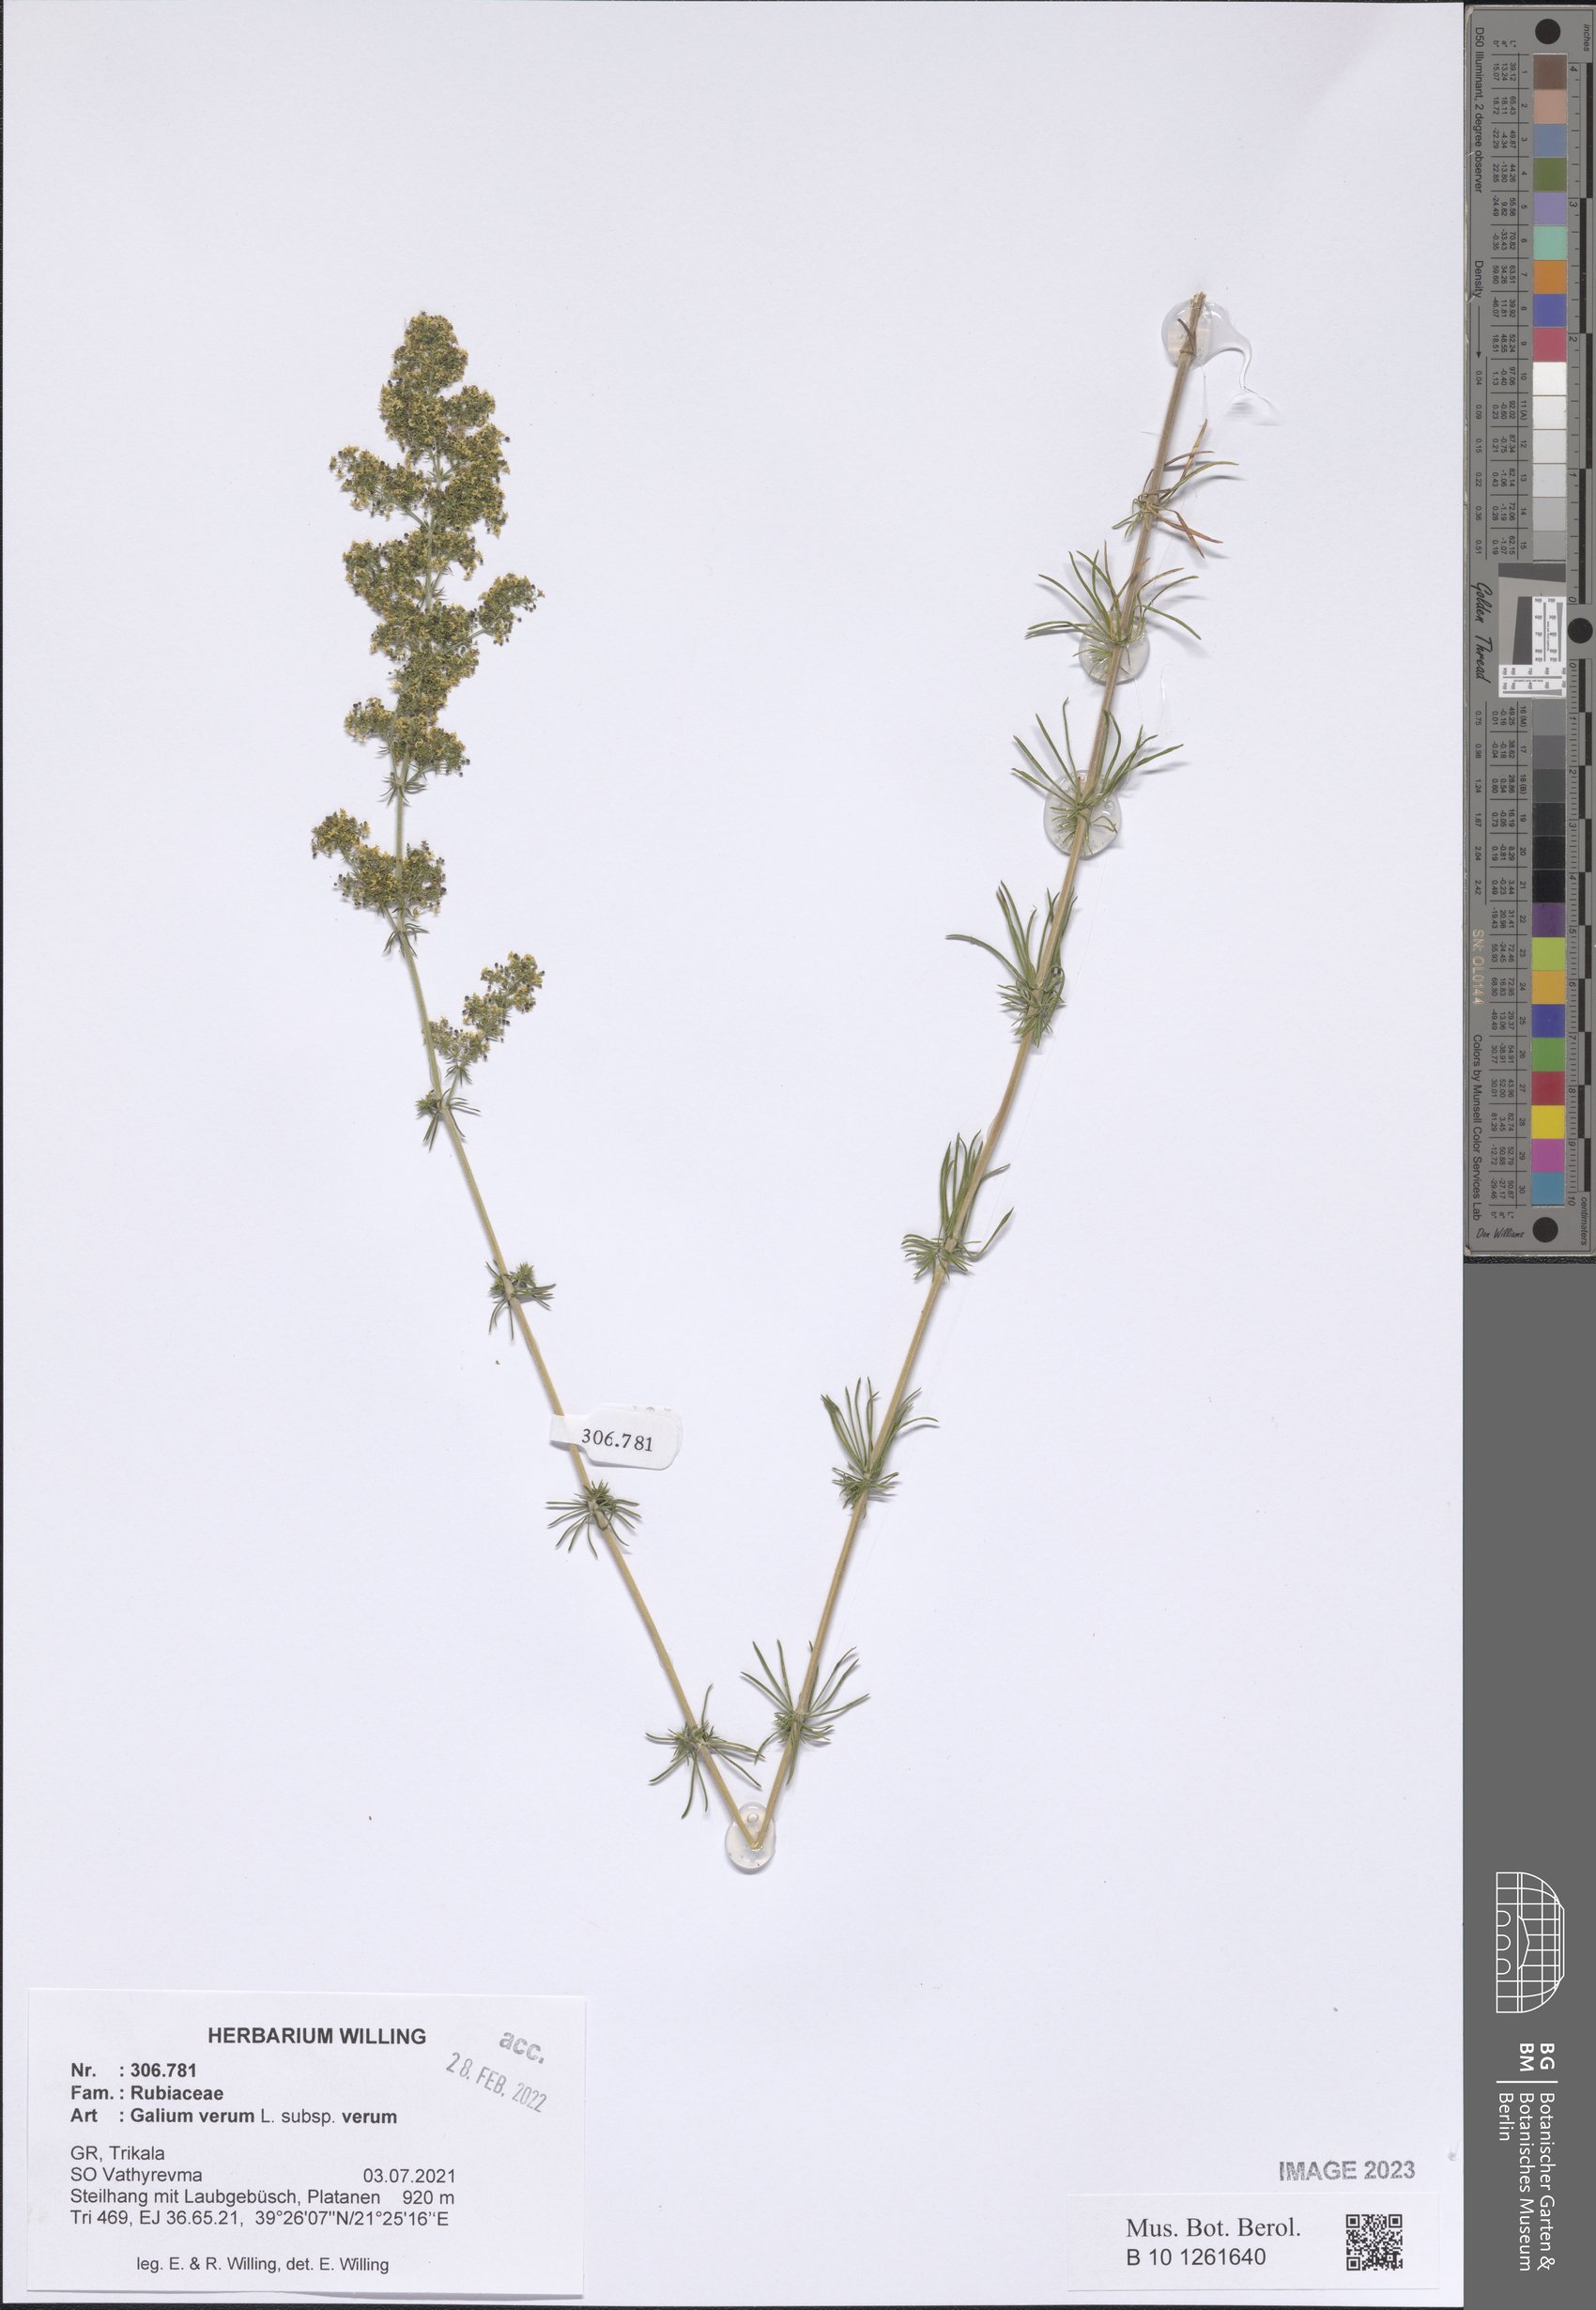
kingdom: Plantae
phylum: Tracheophyta
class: Magnoliopsida
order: Gentianales
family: Rubiaceae
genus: Galium
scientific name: Galium verum
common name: Lady's bedstraw
